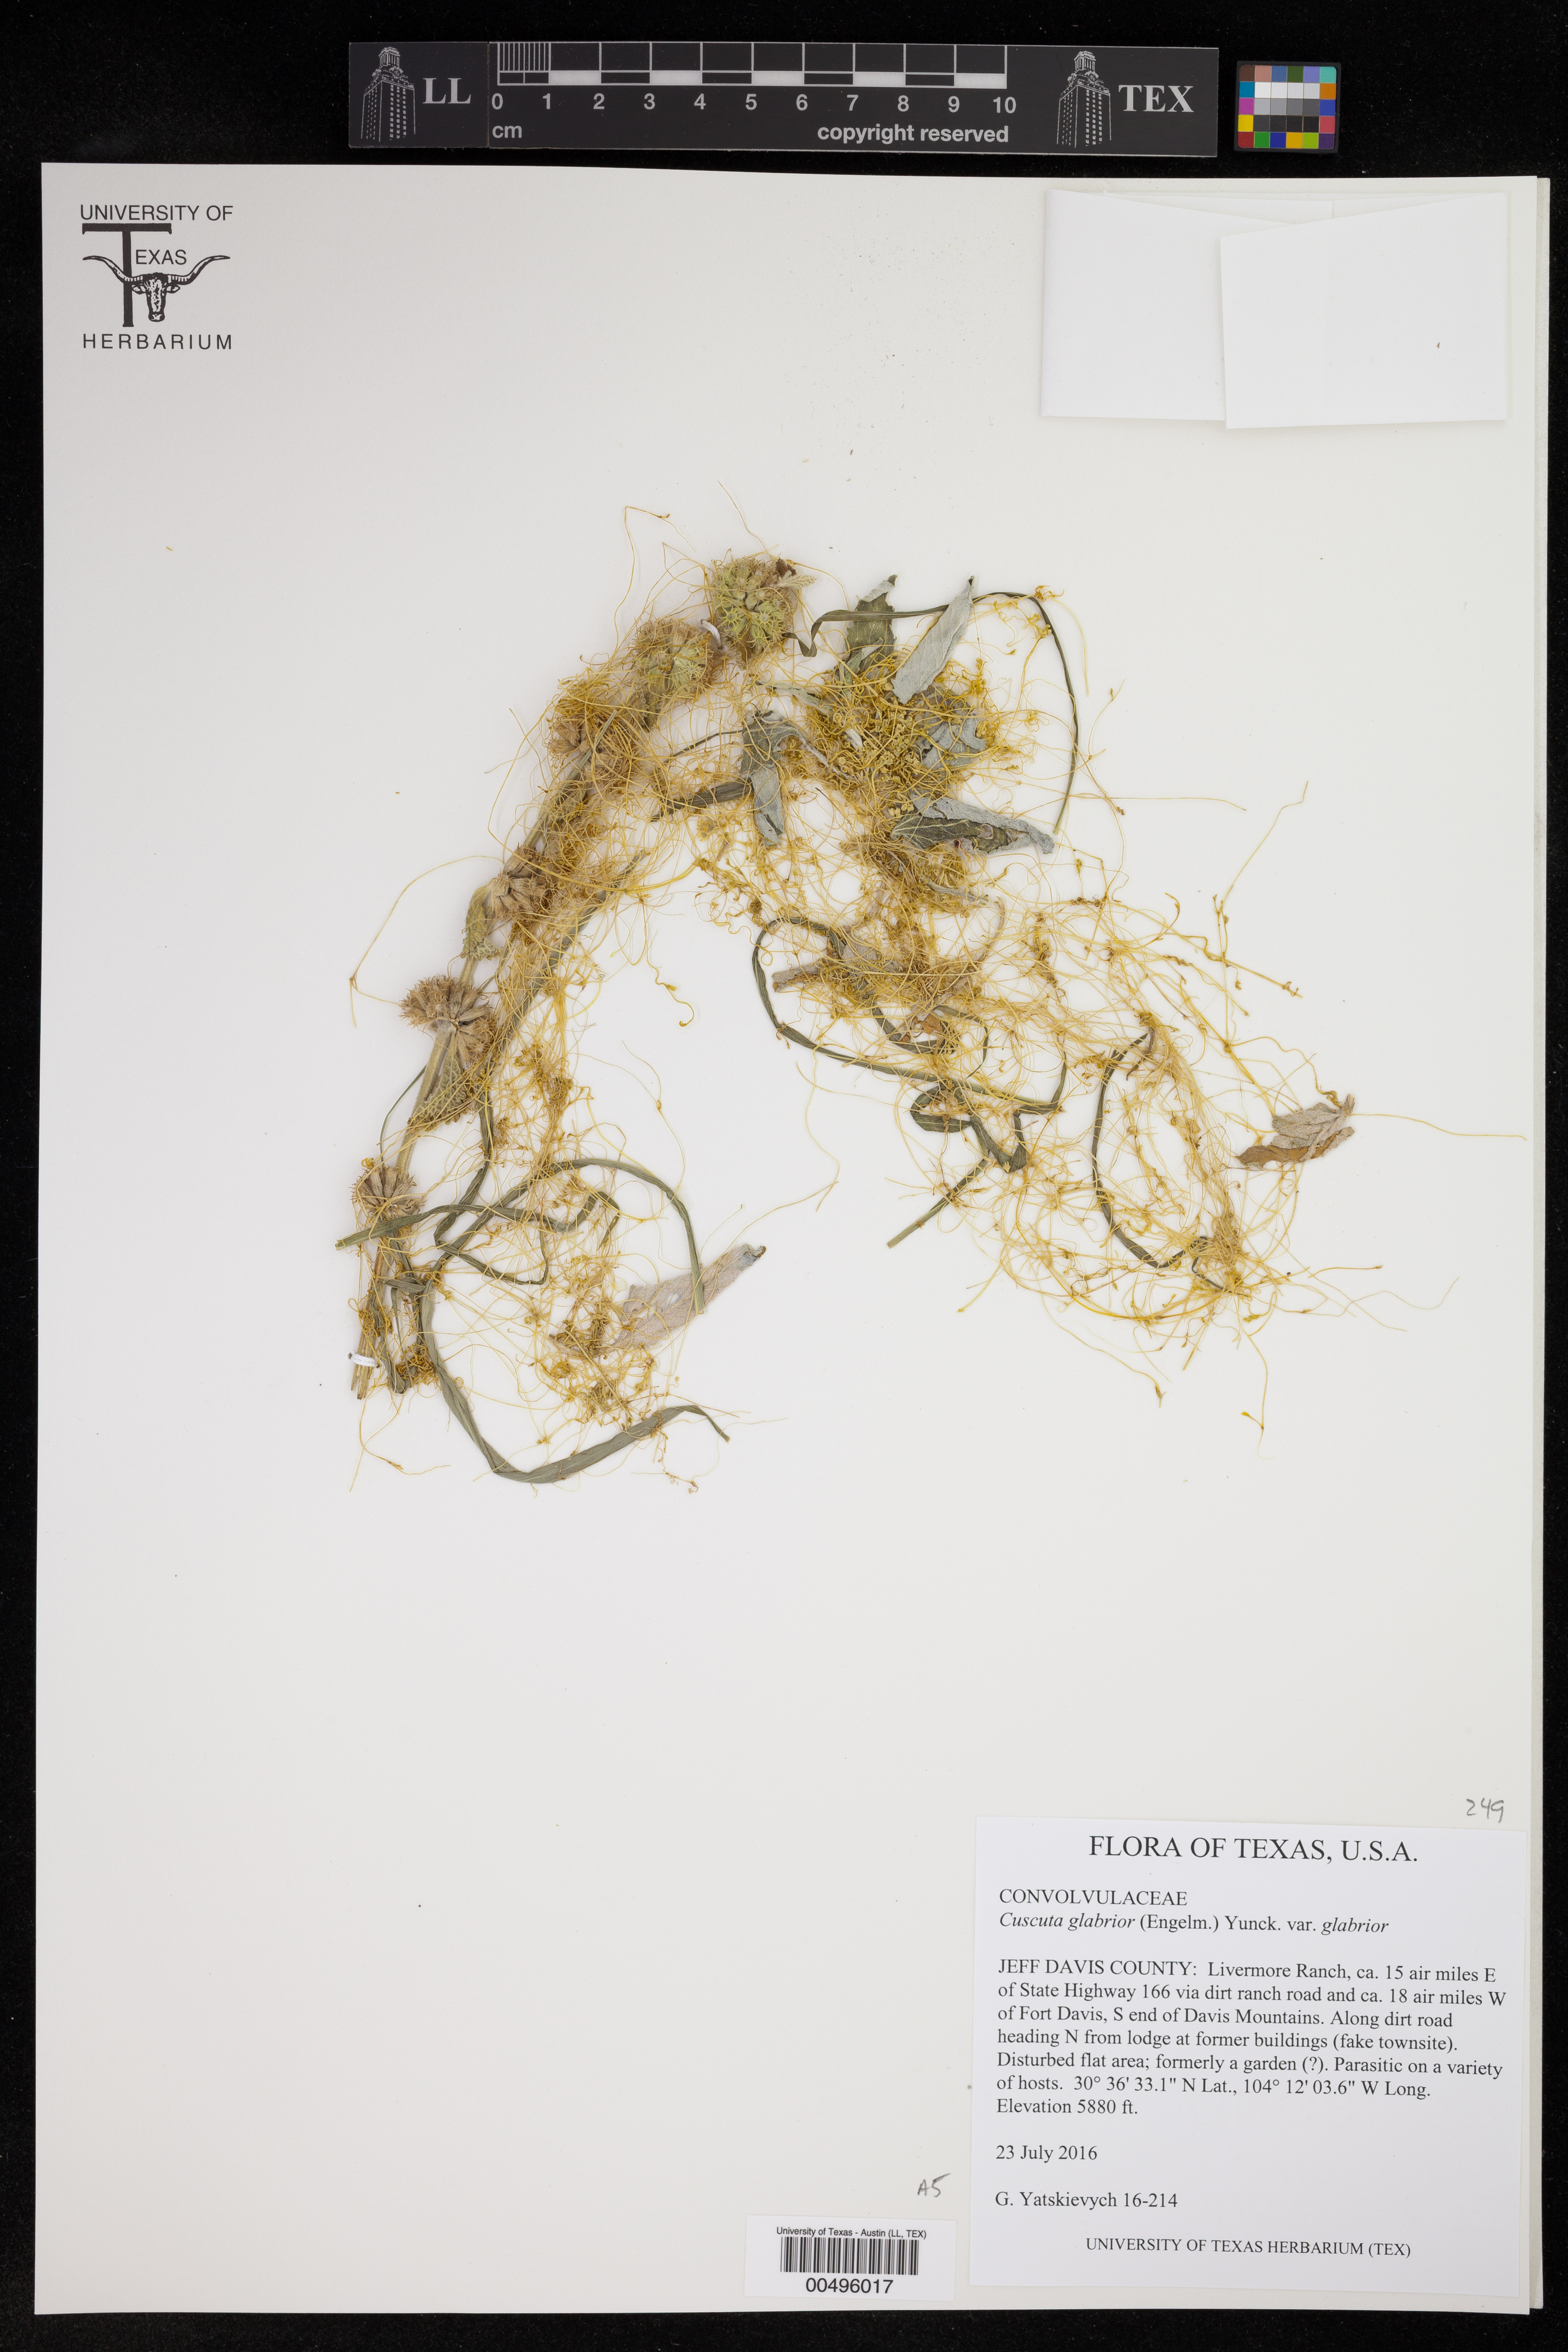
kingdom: Plantae
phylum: Tracheophyta
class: Magnoliopsida
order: Solanales
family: Convolvulaceae
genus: Cuscuta
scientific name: Cuscuta glabrior
